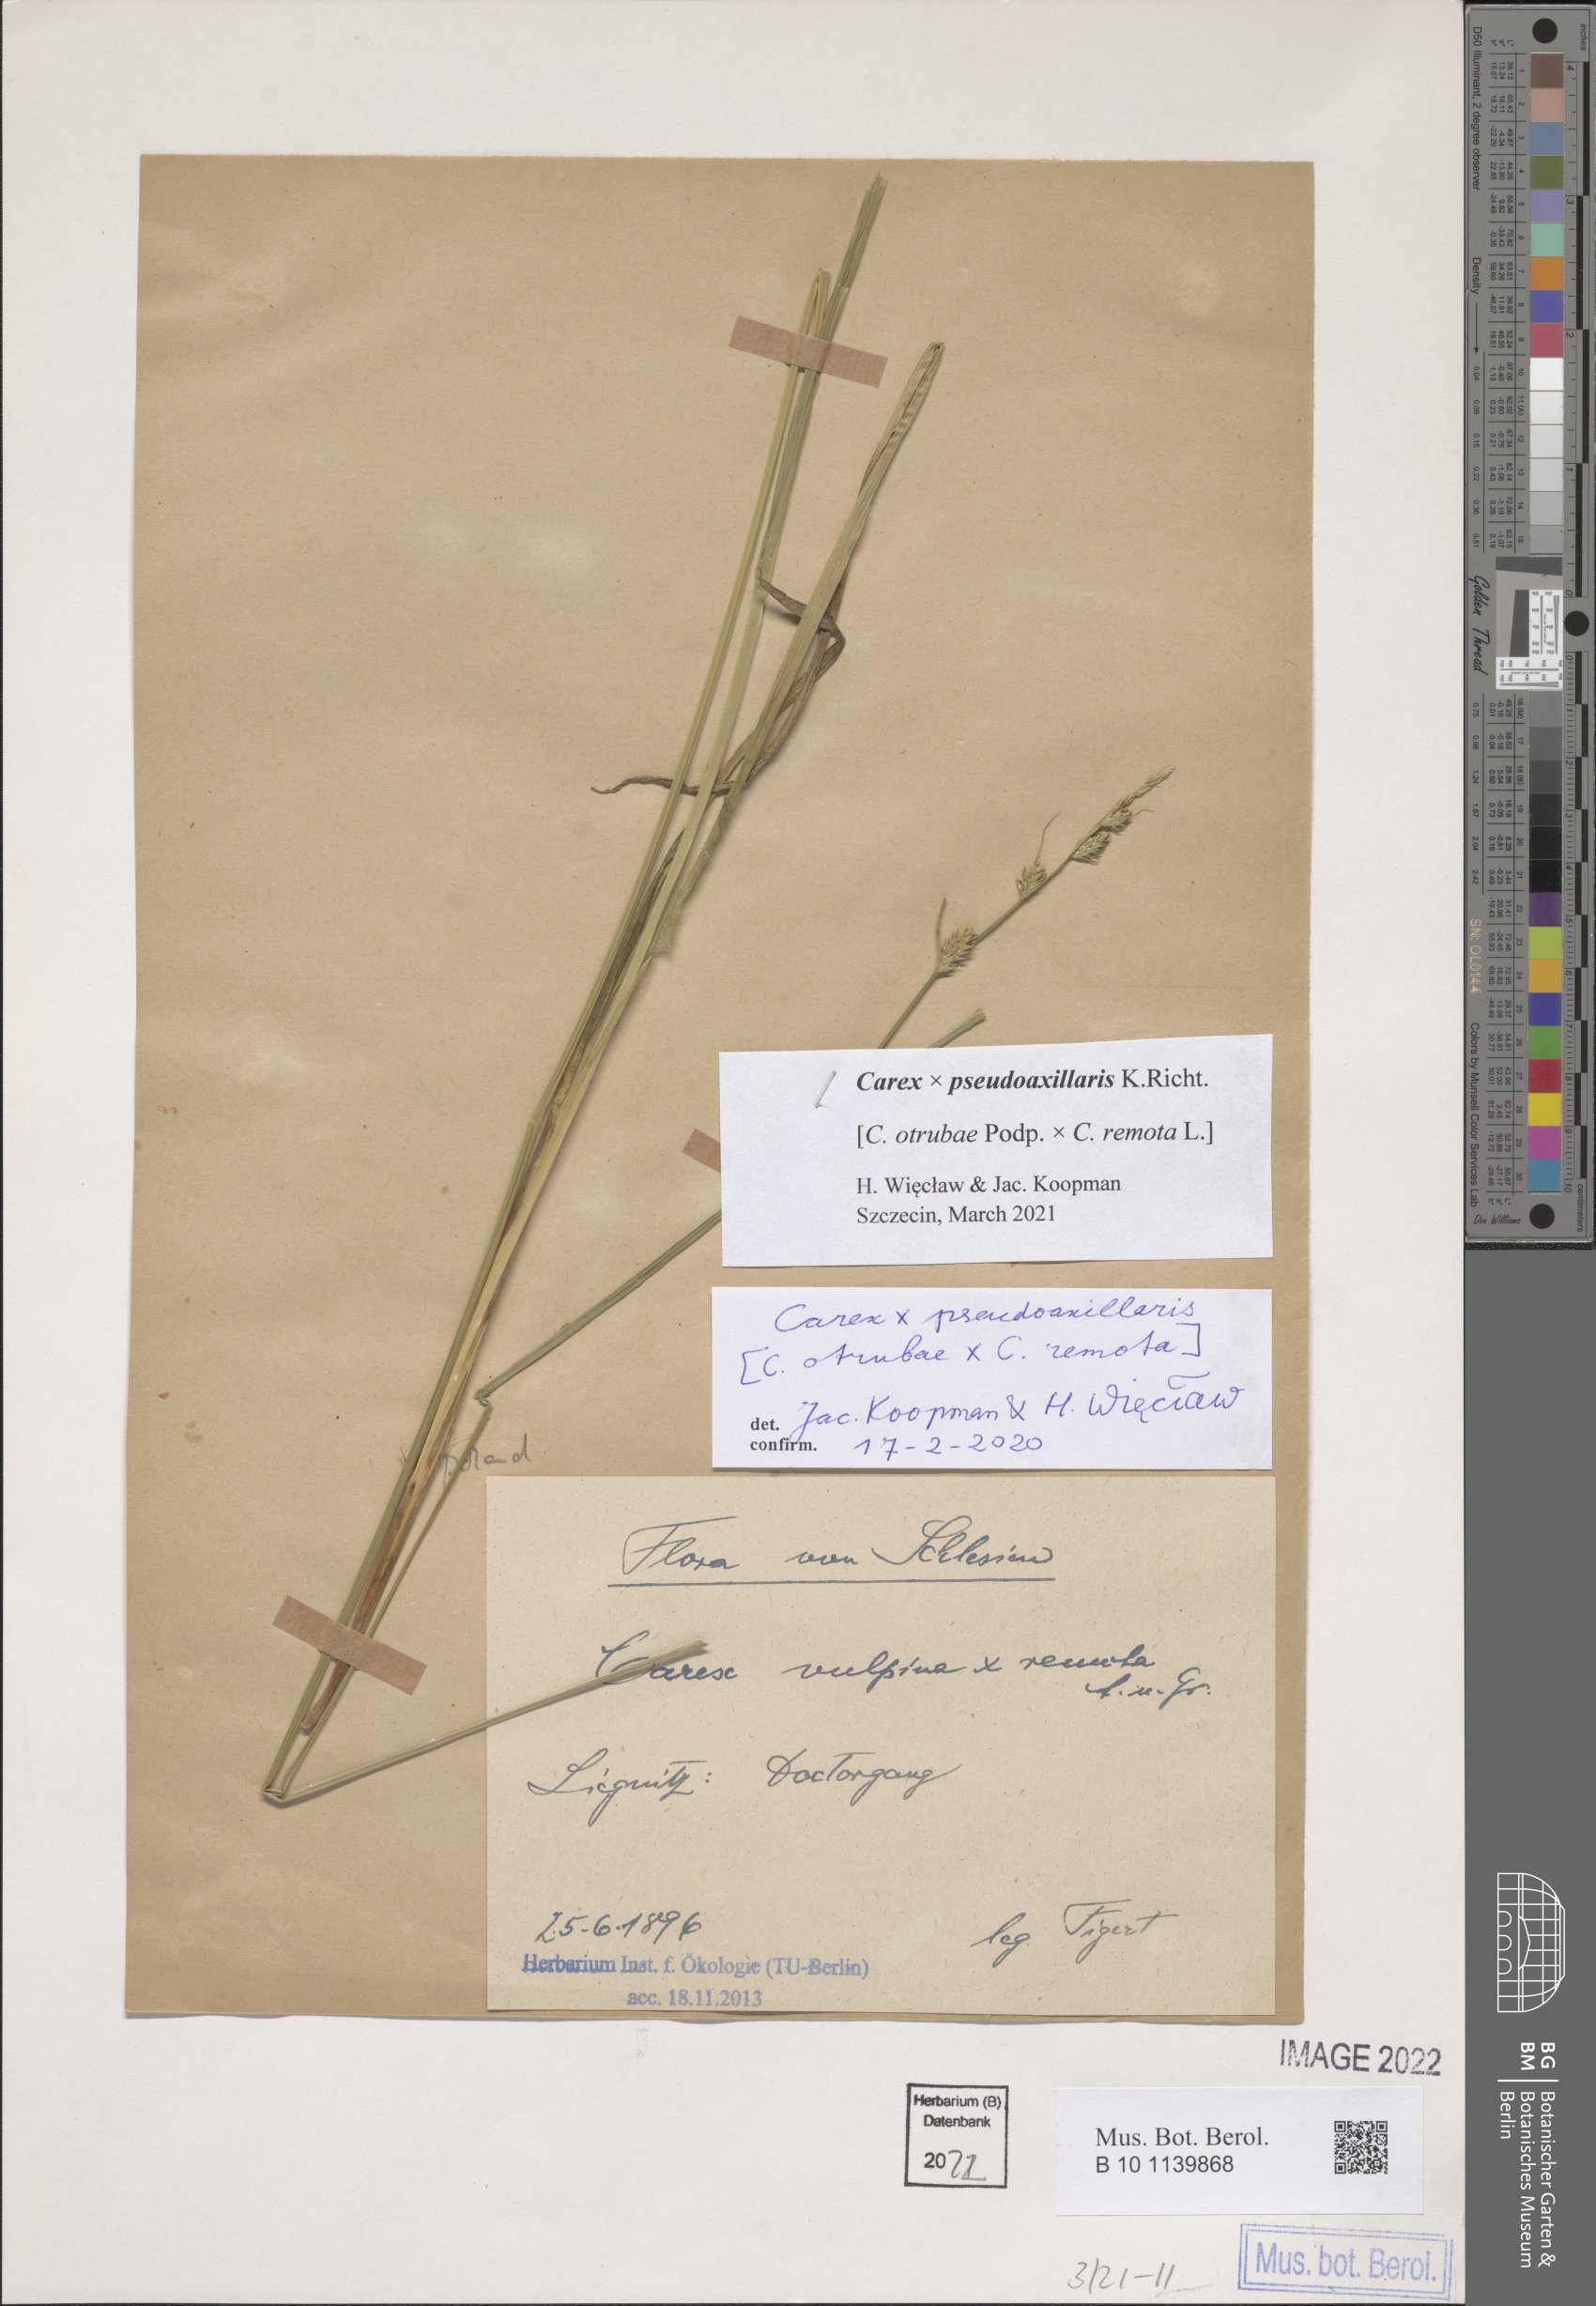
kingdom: Plantae
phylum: Tracheophyta
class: Liliopsida
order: Poales
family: Cyperaceae
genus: Carex
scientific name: Carex pseudoaxillaris
